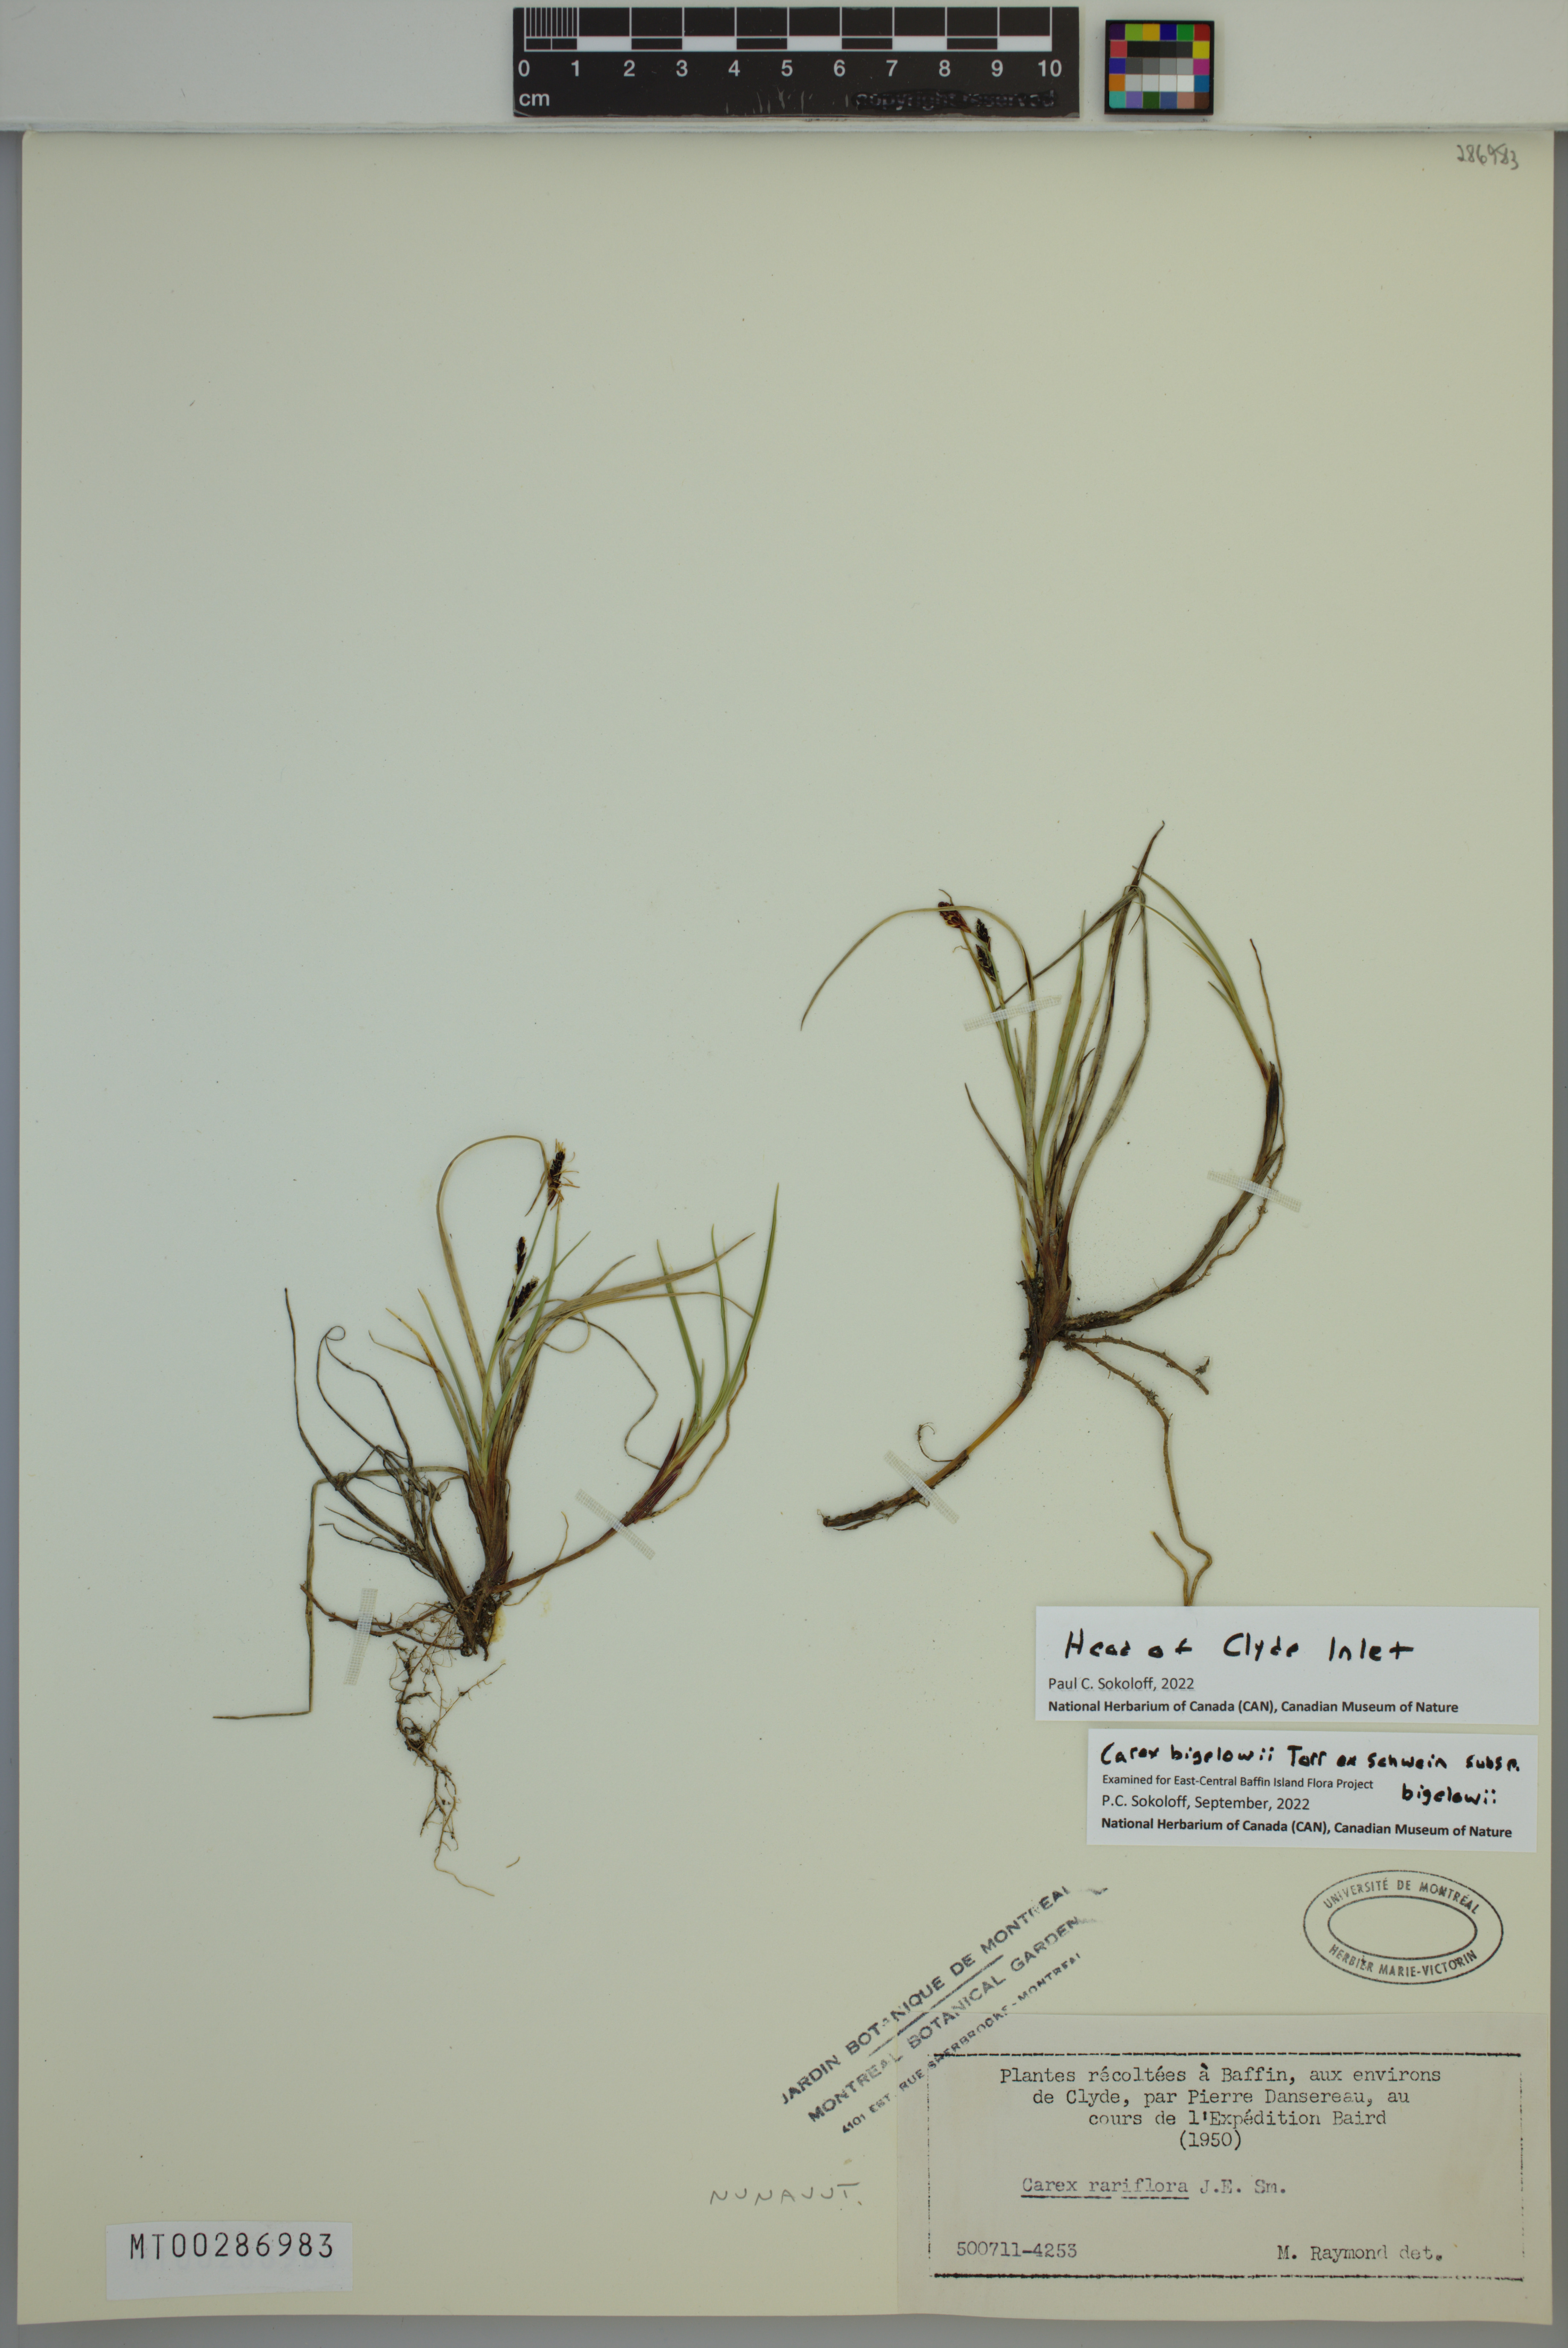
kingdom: Plantae
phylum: Tracheophyta
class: Liliopsida
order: Poales
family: Cyperaceae
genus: Carex
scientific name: Carex bigelowii
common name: Stiff sedge
